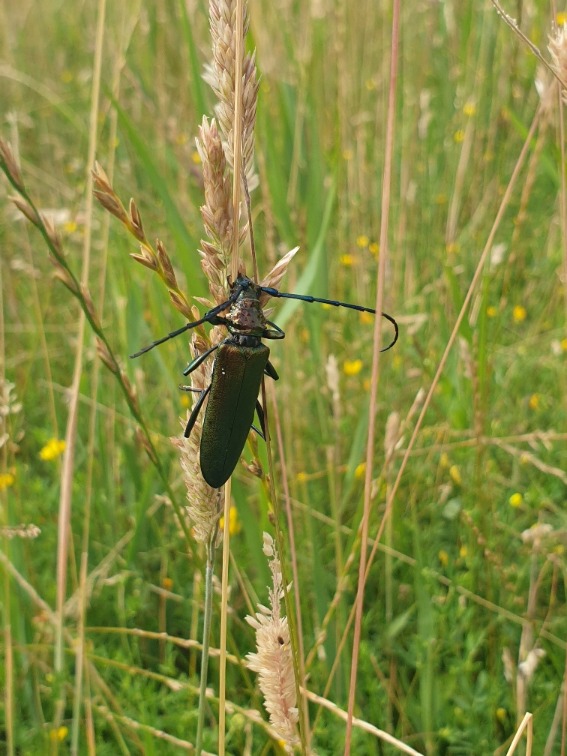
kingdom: Animalia
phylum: Arthropoda
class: Insecta
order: Coleoptera
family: Cerambycidae
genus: Aromia
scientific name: Aromia moschata
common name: Moskusbuk
